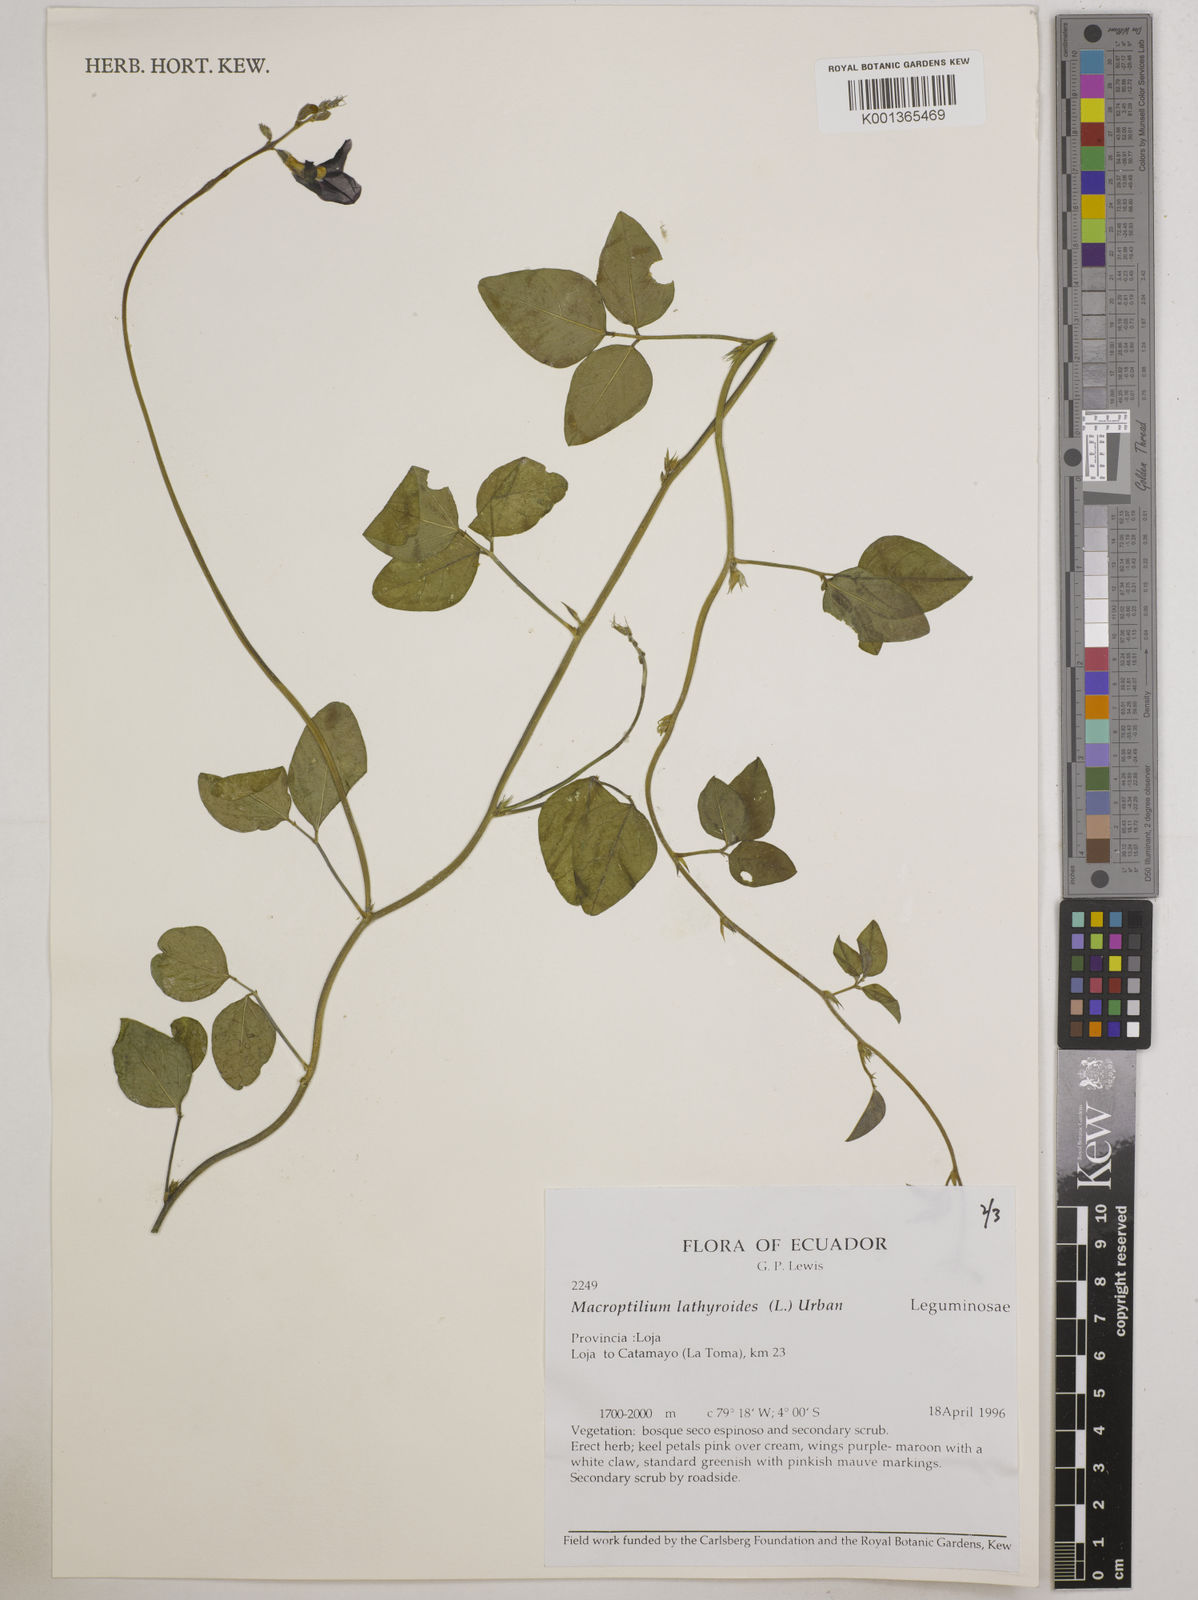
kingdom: Plantae
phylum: Tracheophyta
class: Magnoliopsida
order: Fabales
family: Fabaceae
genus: Macroptilium
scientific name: Macroptilium lathyroides
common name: Wild bushbean
